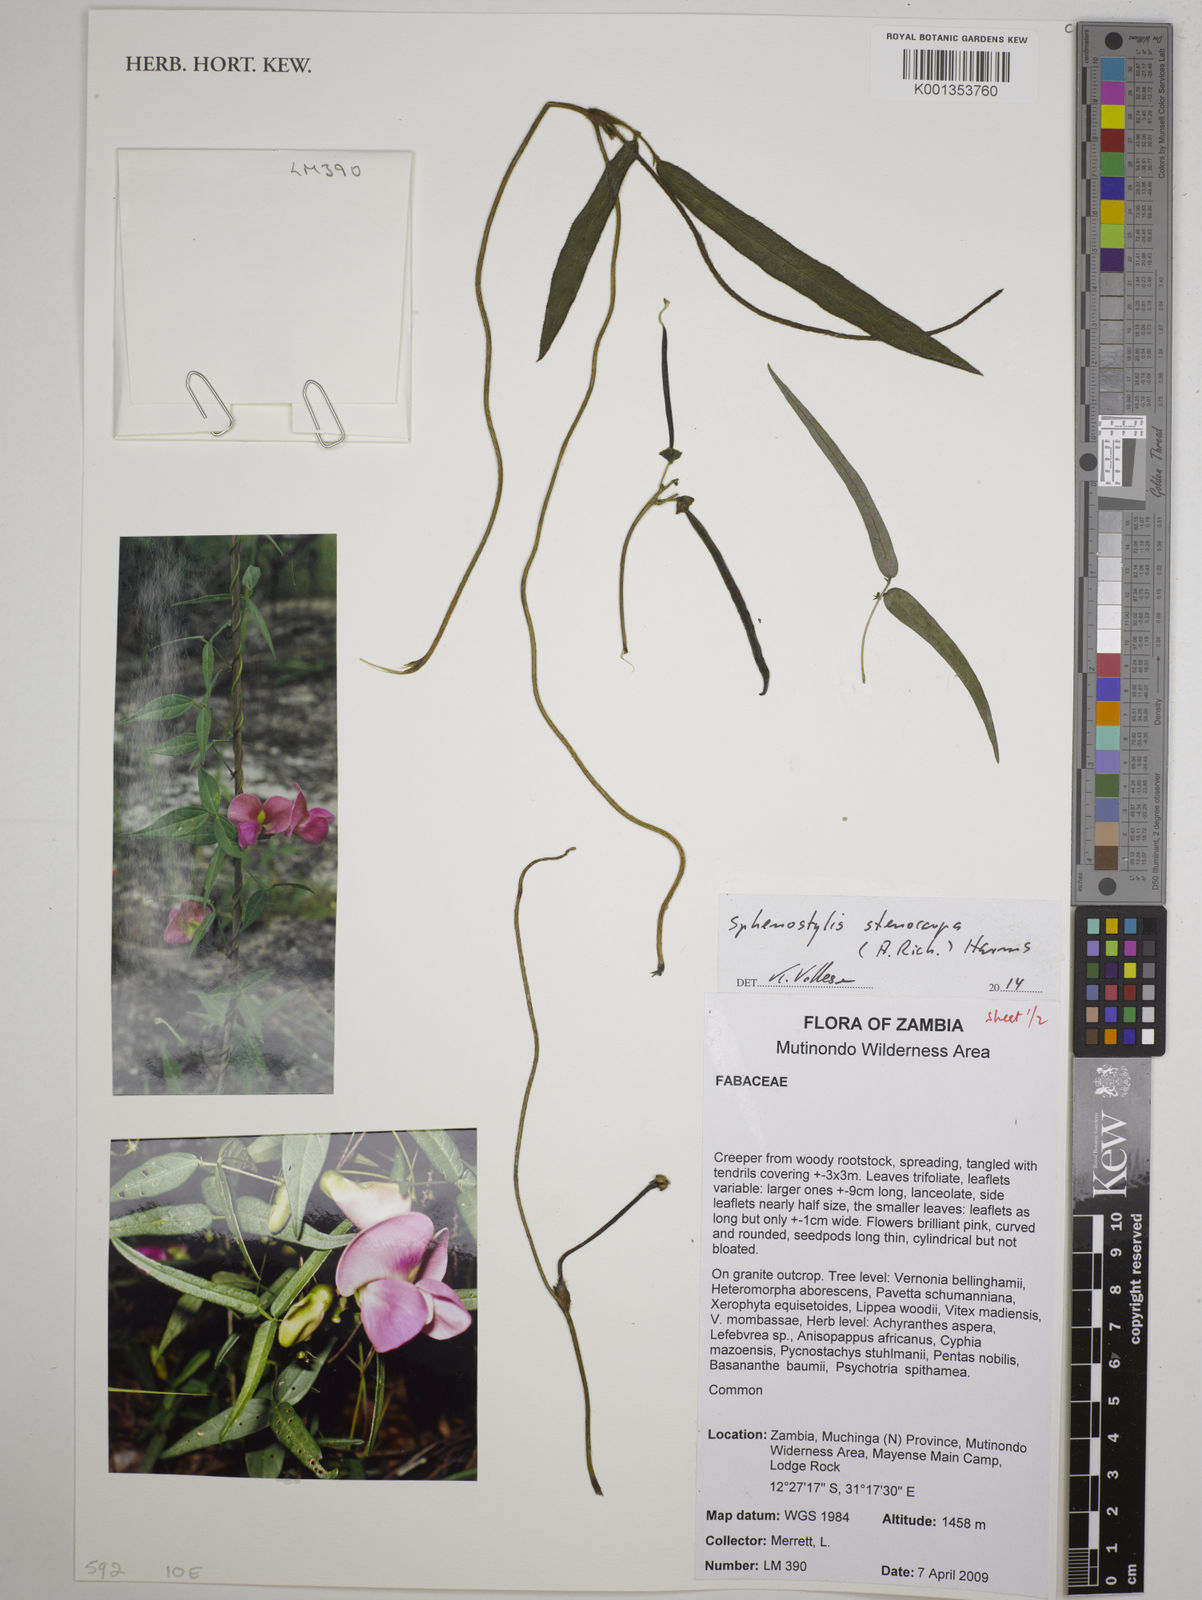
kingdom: Plantae
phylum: Tracheophyta
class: Magnoliopsida
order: Fabales
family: Fabaceae
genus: Sphenostylis
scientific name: Sphenostylis stenocarpa
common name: Yam-pea
